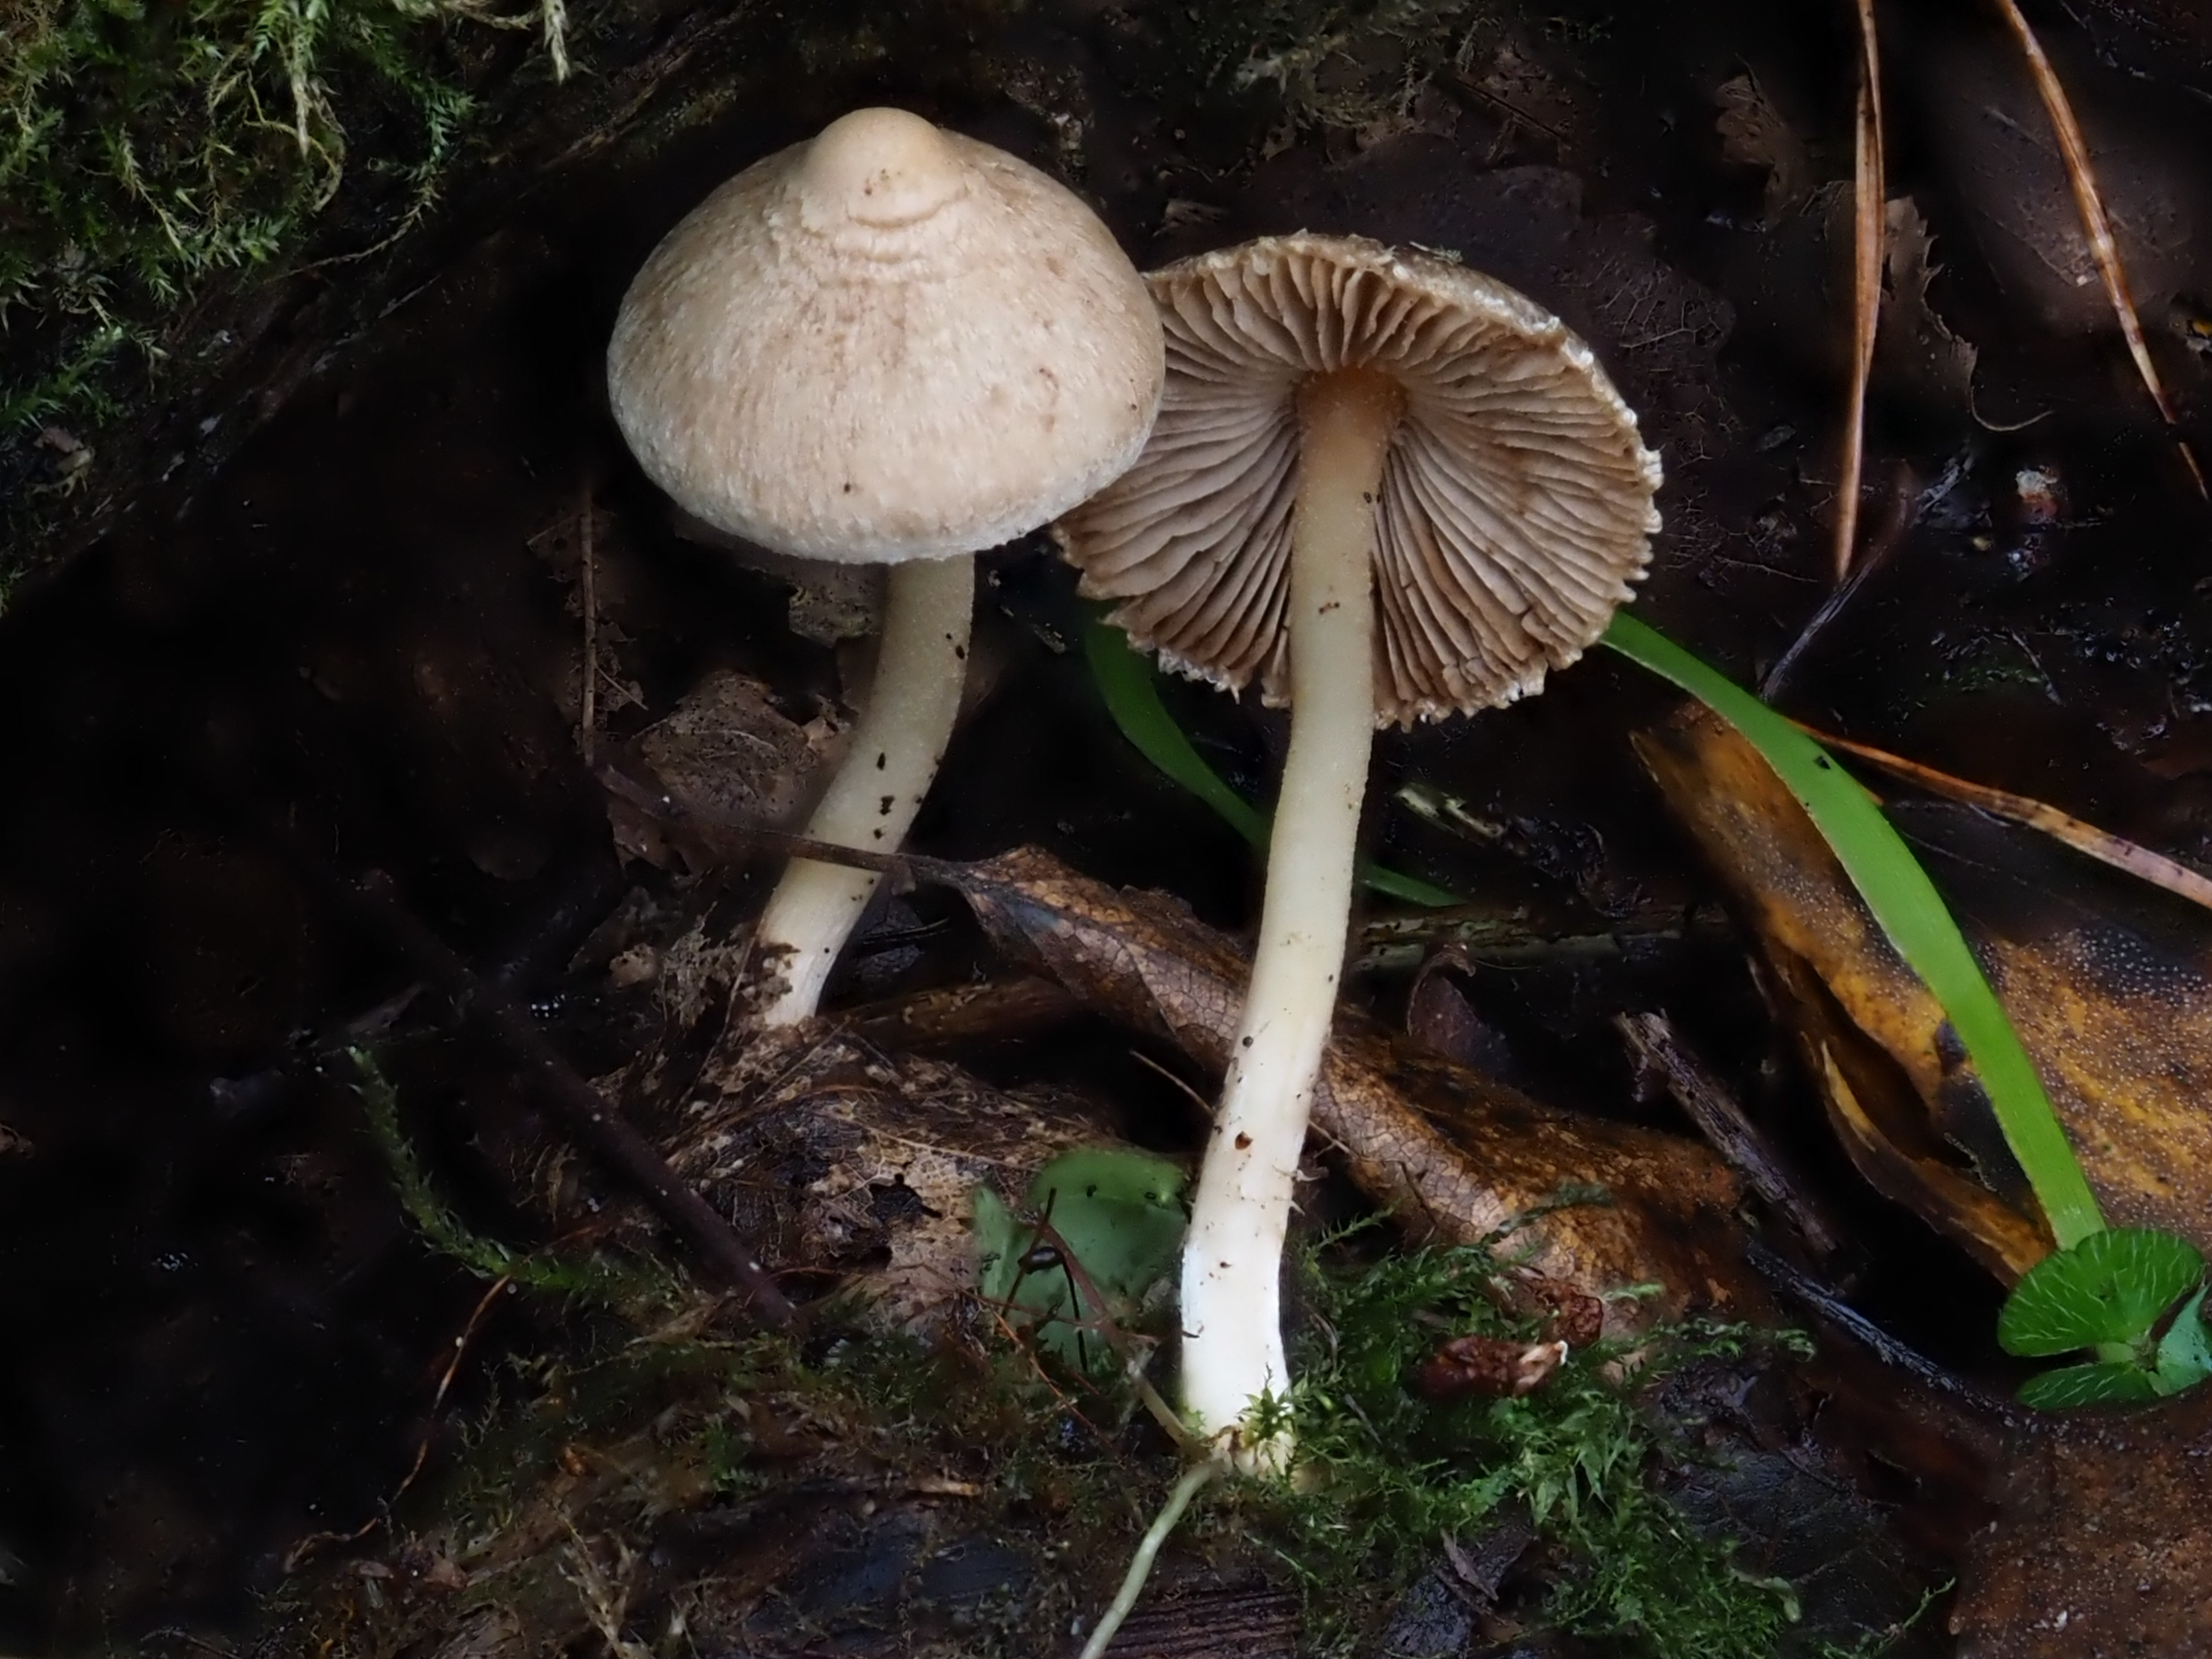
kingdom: Fungi
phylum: Basidiomycota
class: Agaricomycetes
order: Agaricales
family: Inocybaceae
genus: Inocybe
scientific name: Inocybe geophylla
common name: White fibrecap
